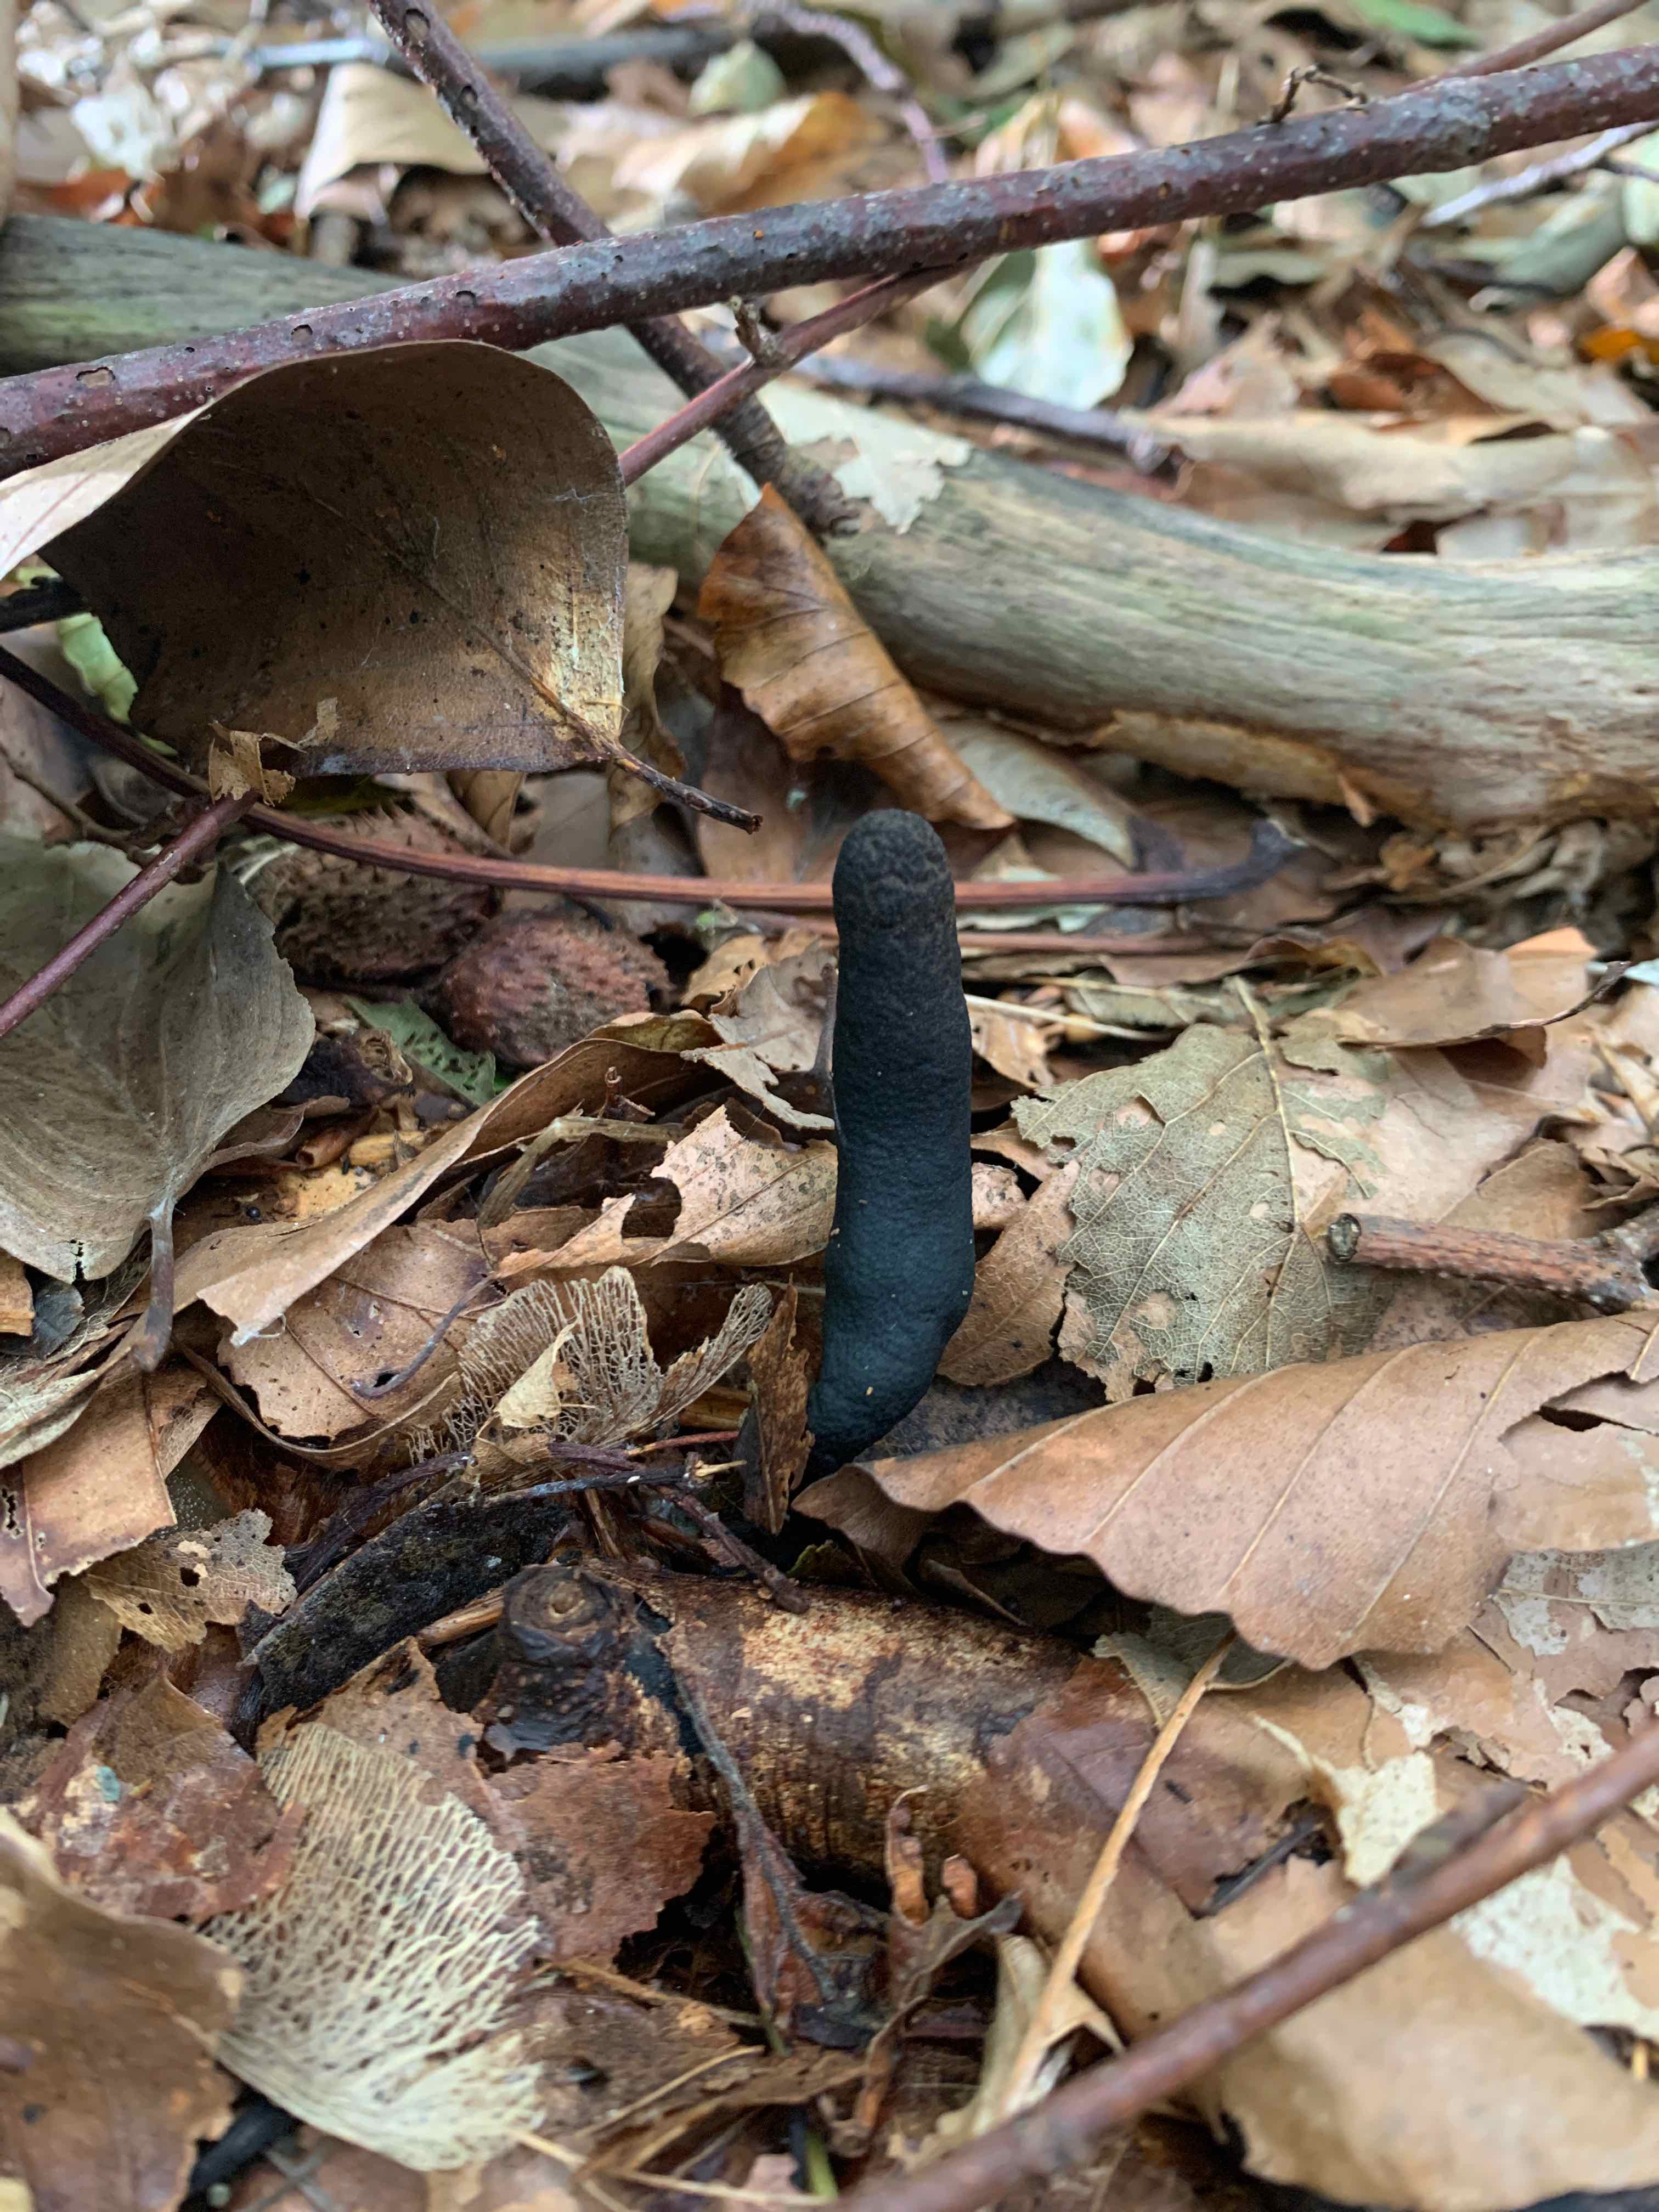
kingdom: Fungi
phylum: Ascomycota
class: Sordariomycetes
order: Xylariales
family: Xylariaceae
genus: Xylaria
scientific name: Xylaria longipes
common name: slank stødsvamp
